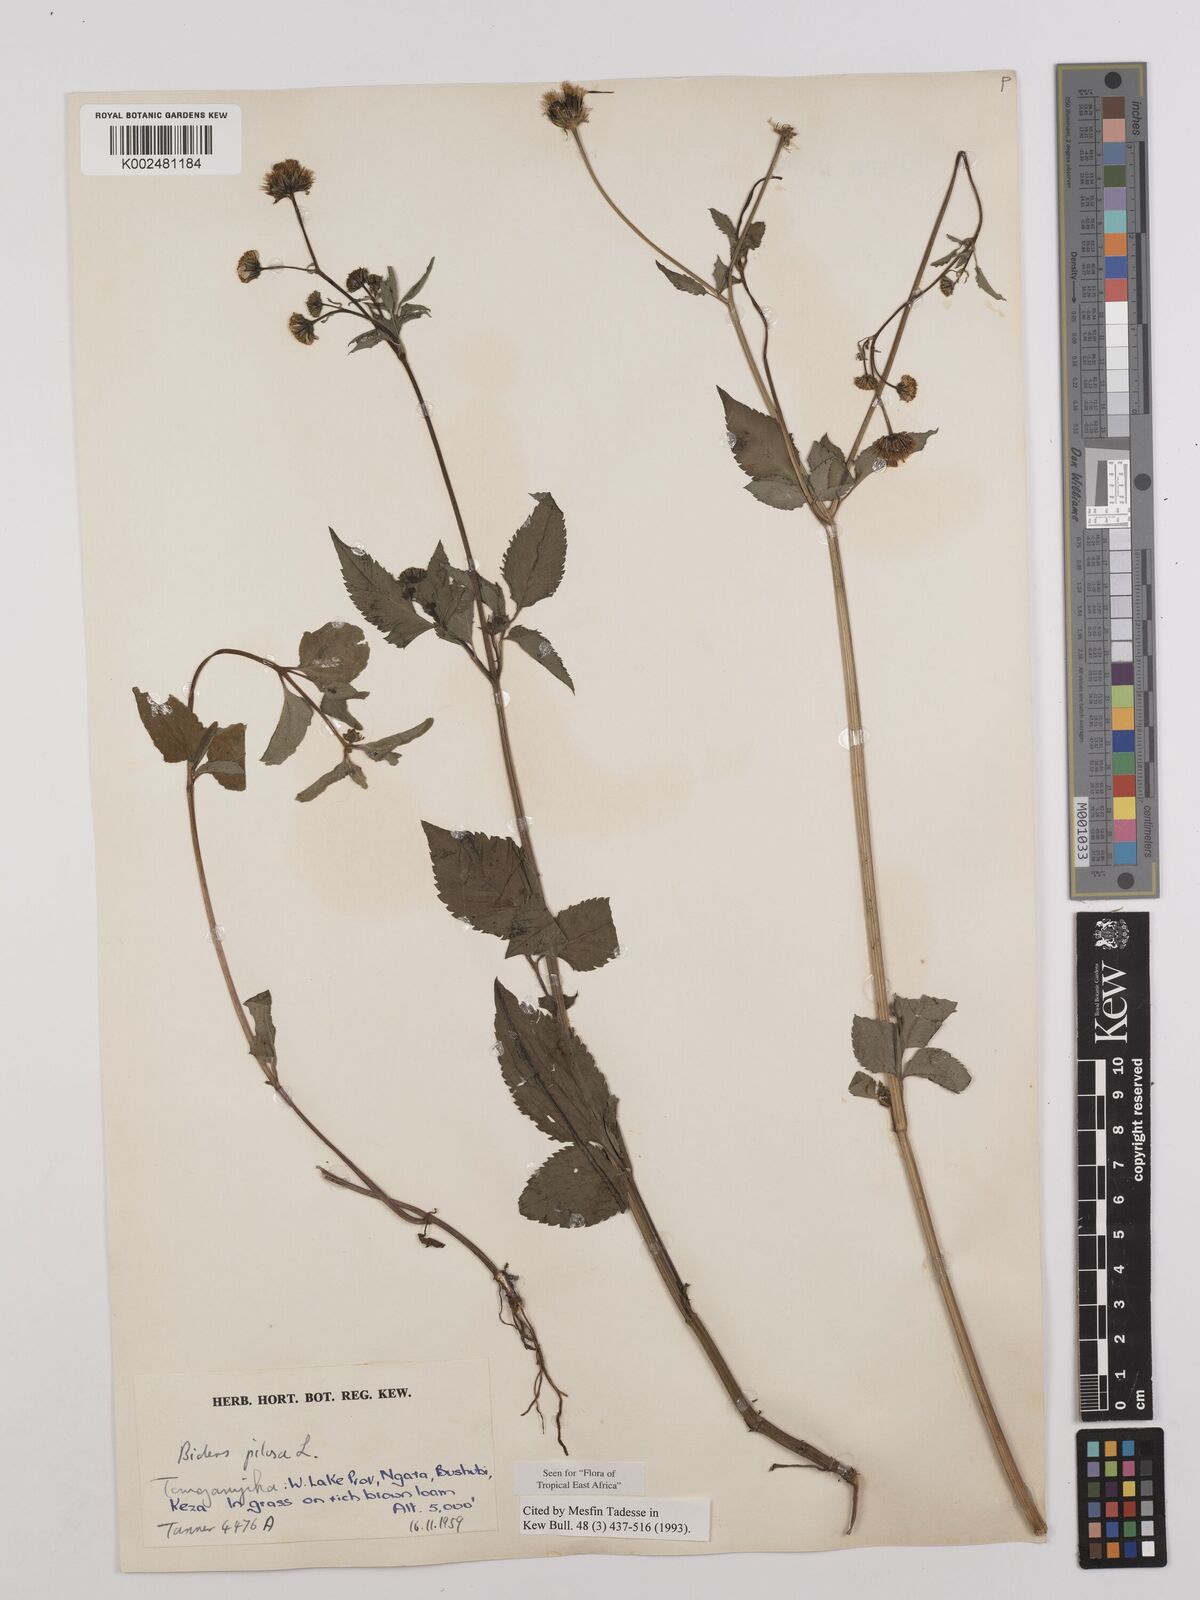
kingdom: Plantae
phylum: Tracheophyta
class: Magnoliopsida
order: Asterales
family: Asteraceae
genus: Bidens
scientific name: Bidens pilosa
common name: Black-jack
